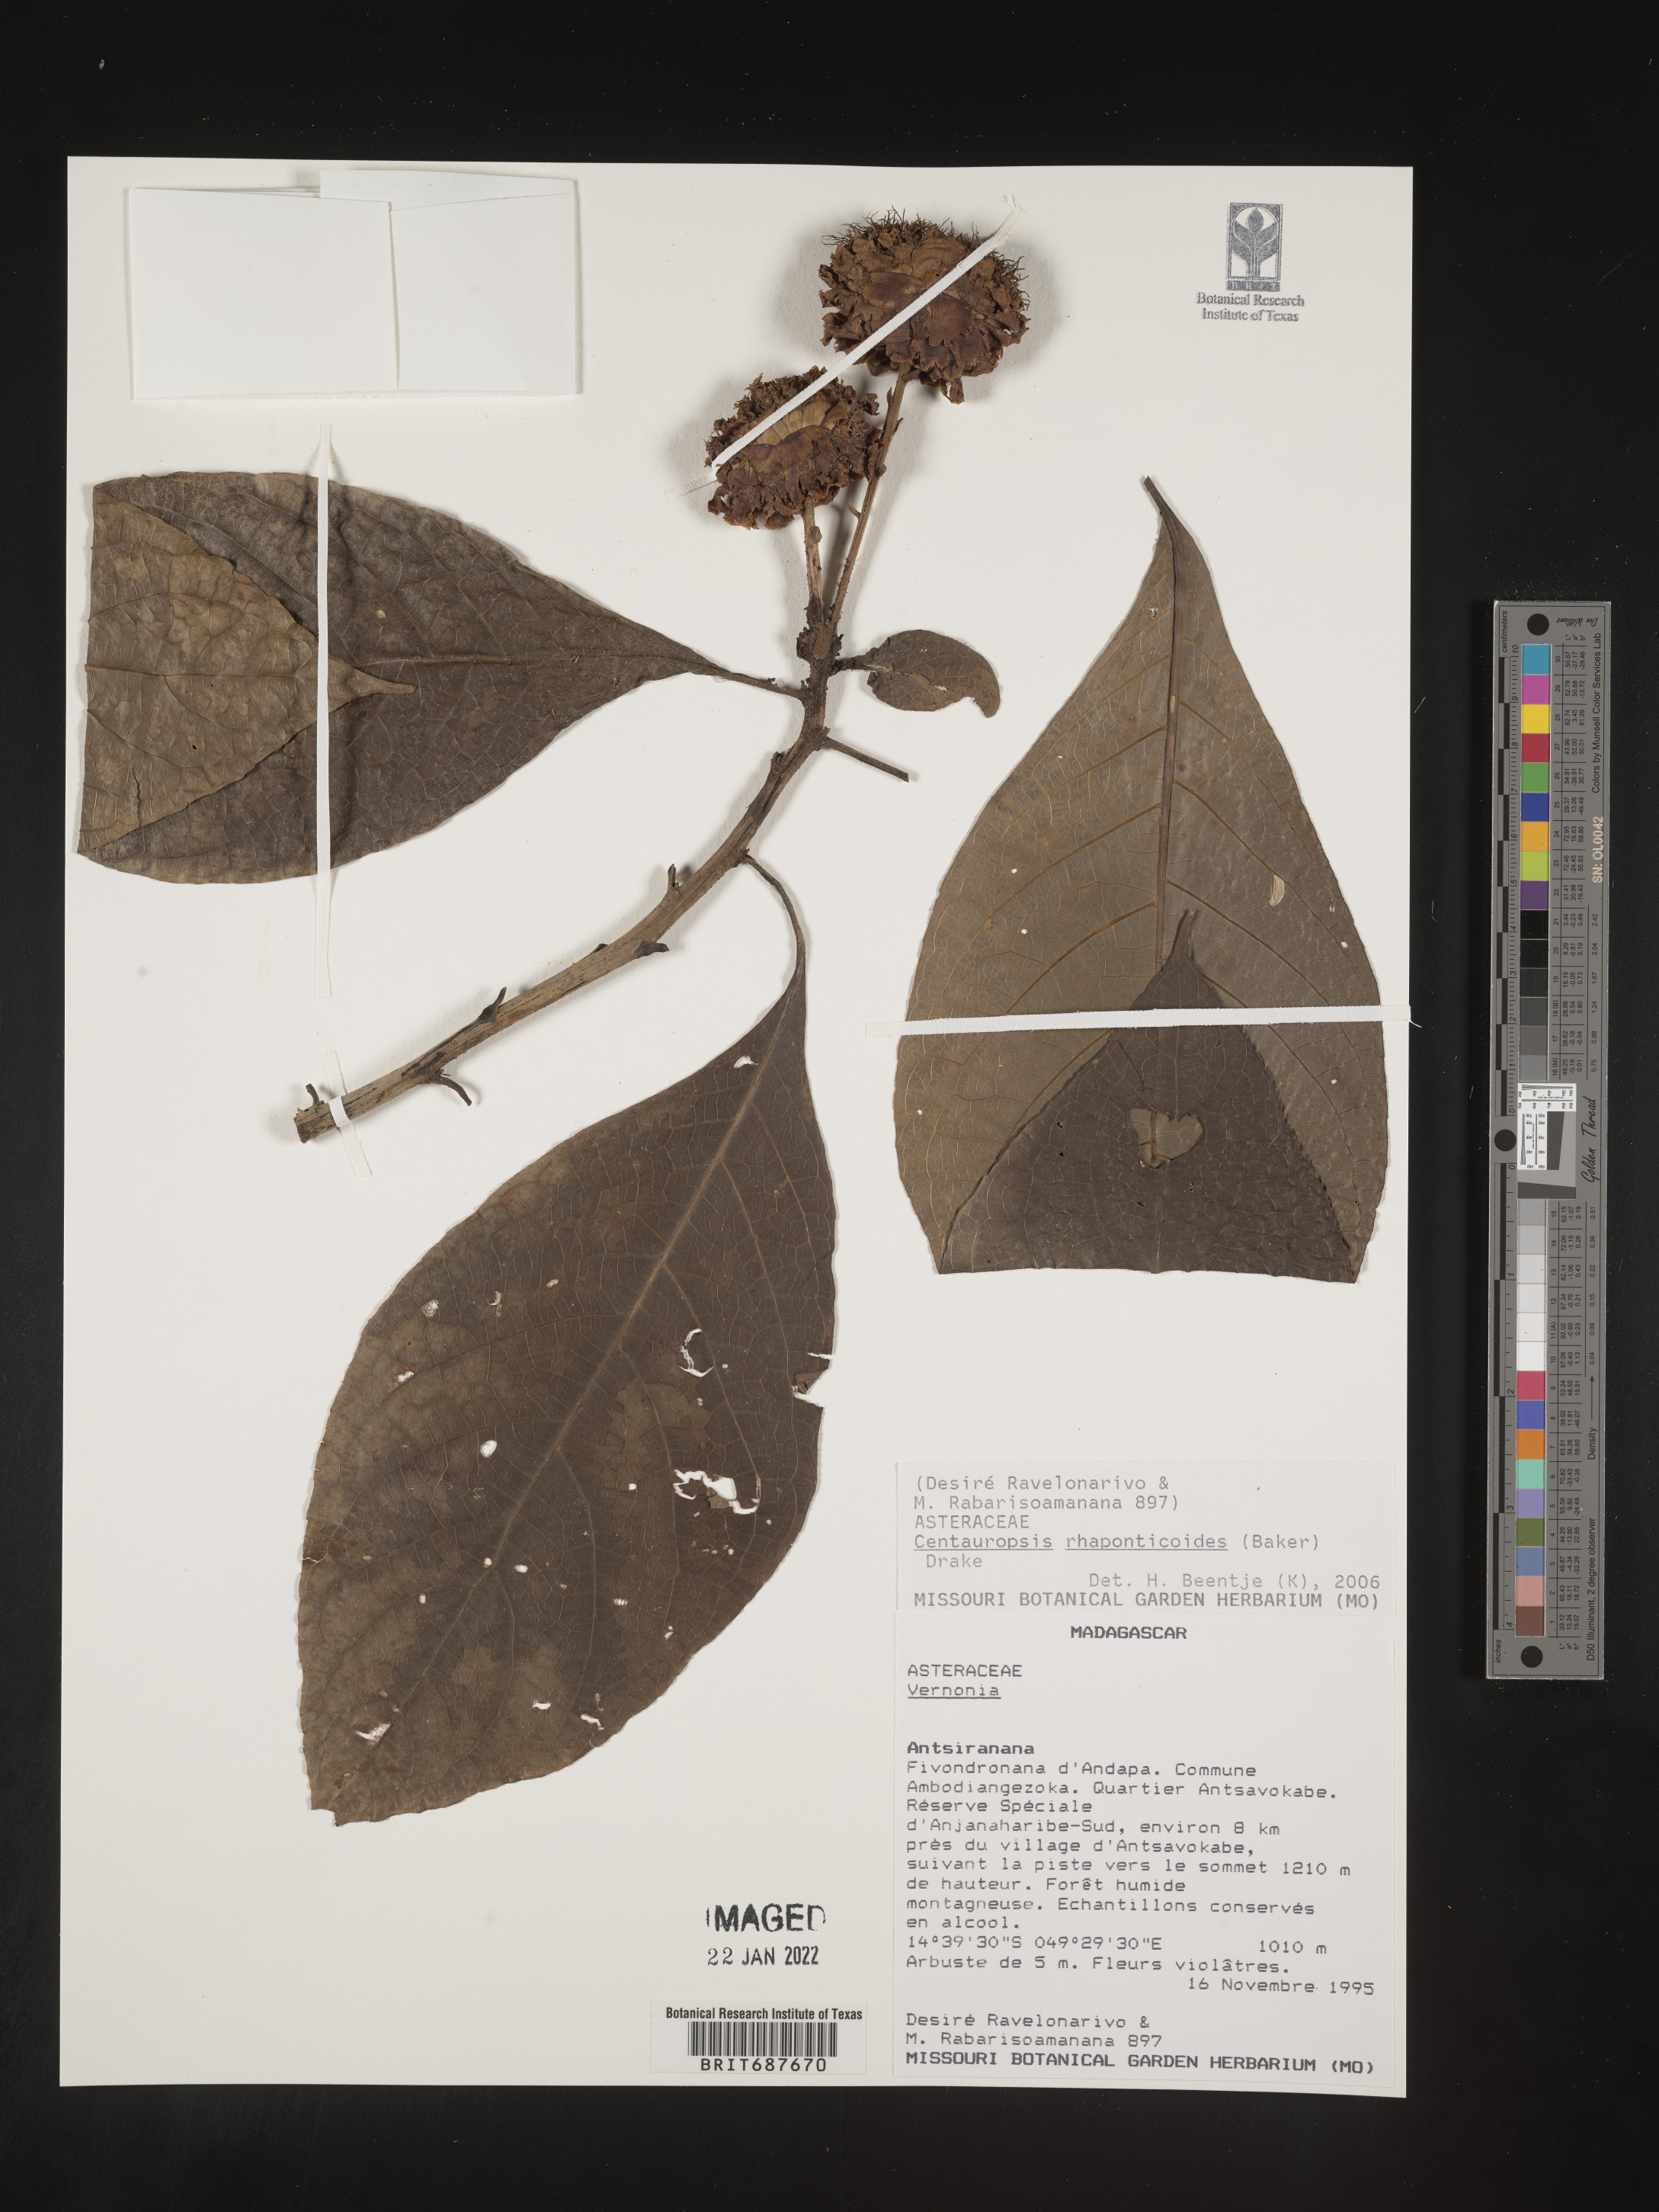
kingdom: Plantae
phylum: Tracheophyta
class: Magnoliopsida
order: Asterales
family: Asteraceae
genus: Centauropsis
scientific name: Centauropsis
